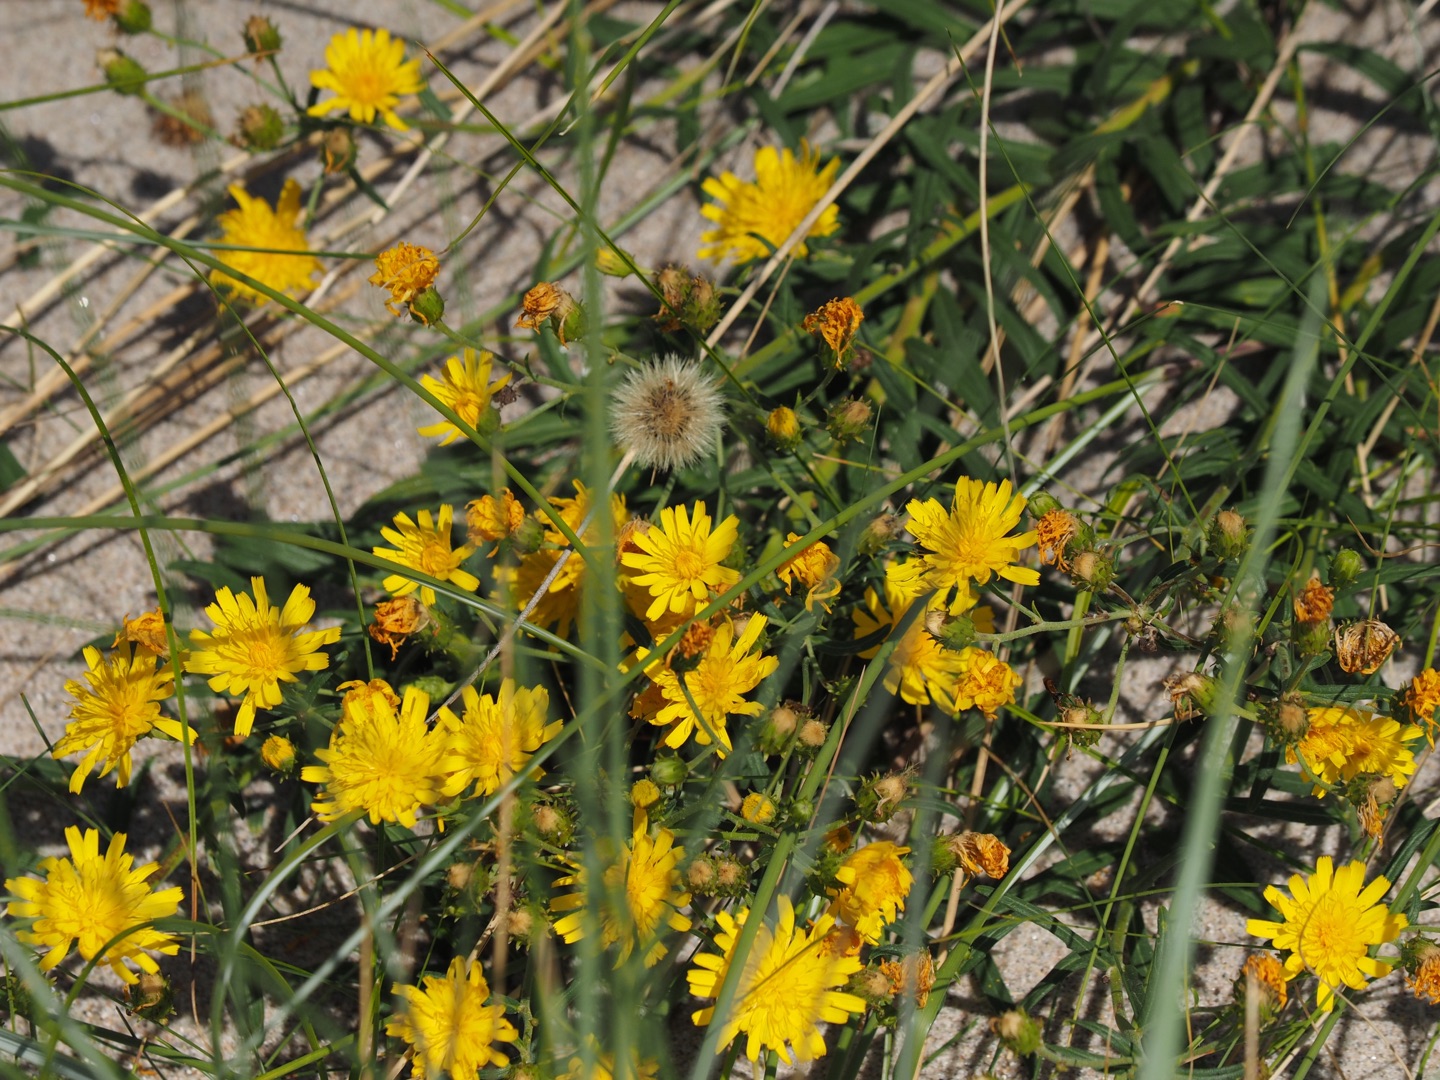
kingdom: Plantae
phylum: Tracheophyta
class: Magnoliopsida
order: Asterales
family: Asteraceae
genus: Hieracium
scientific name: Hieracium umbellatum
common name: Smalbladet høgeurt
